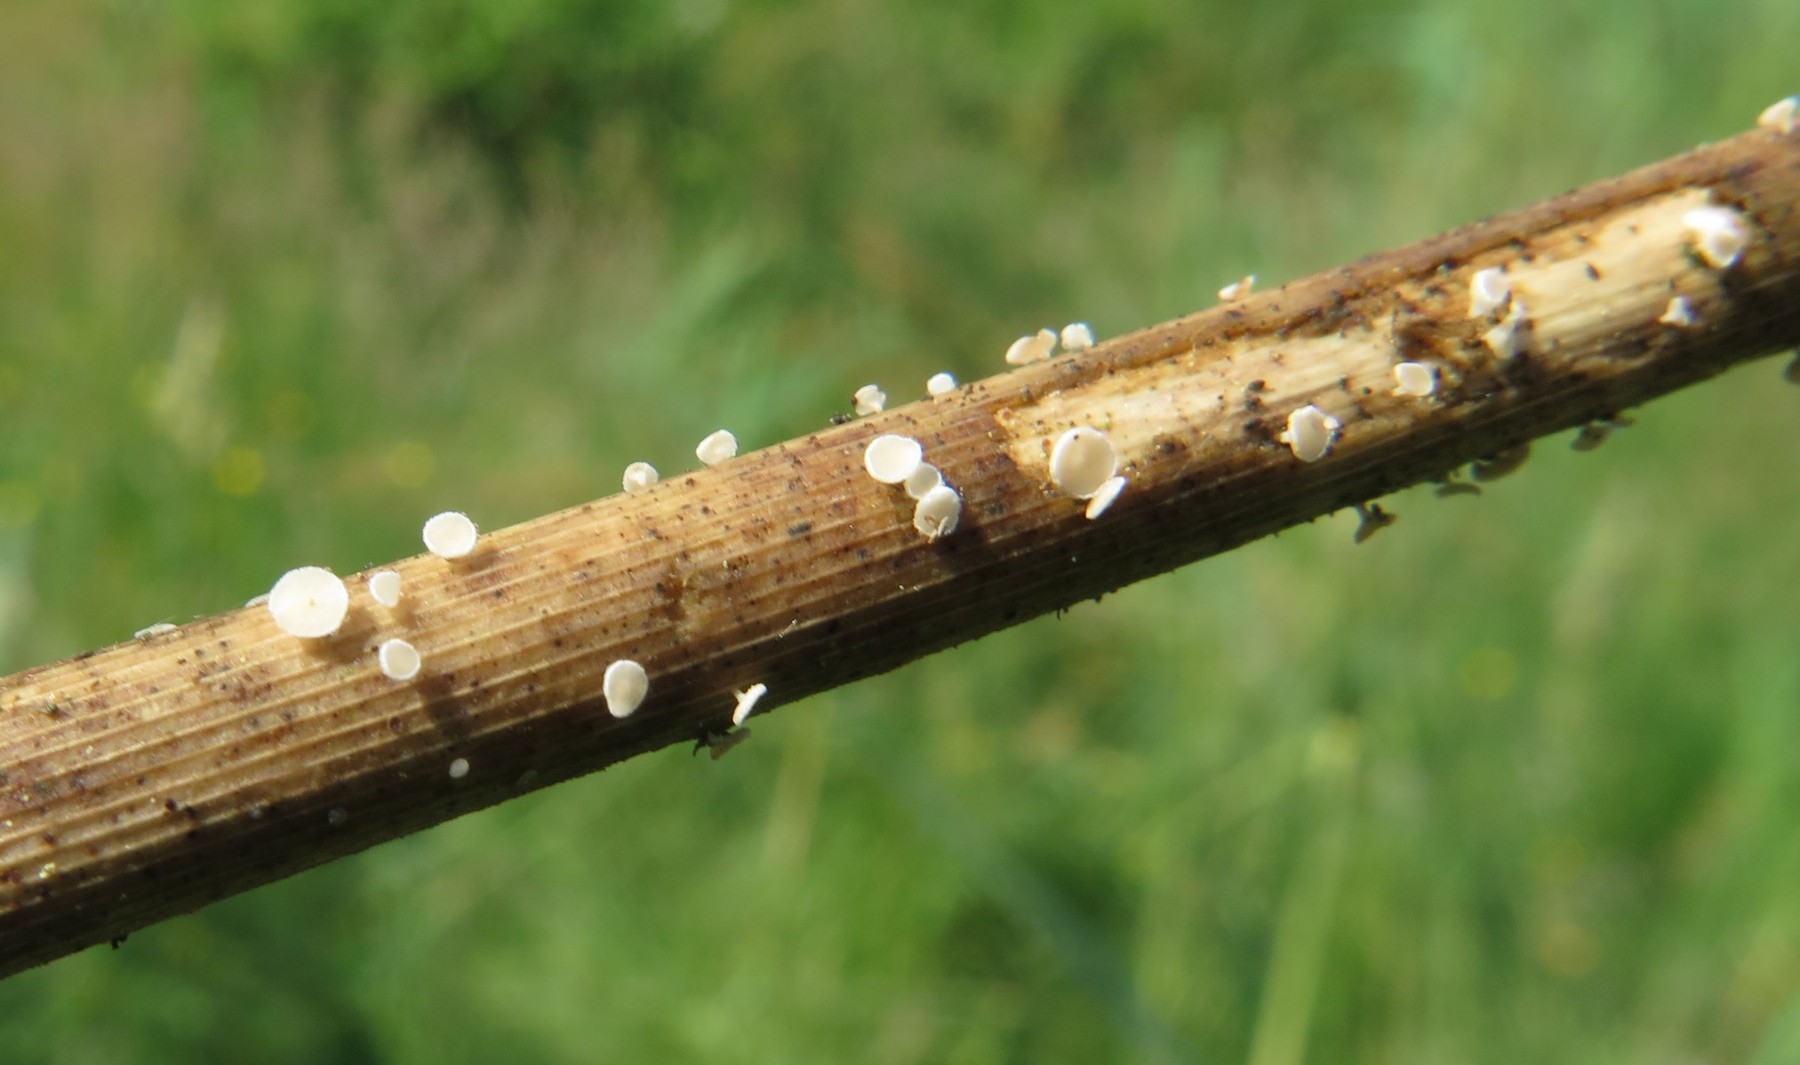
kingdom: Fungi
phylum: Ascomycota
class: Leotiomycetes
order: Helotiales
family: Lachnaceae
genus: Lachnum
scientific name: Lachnum controversum
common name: tagrør-frynseskive
